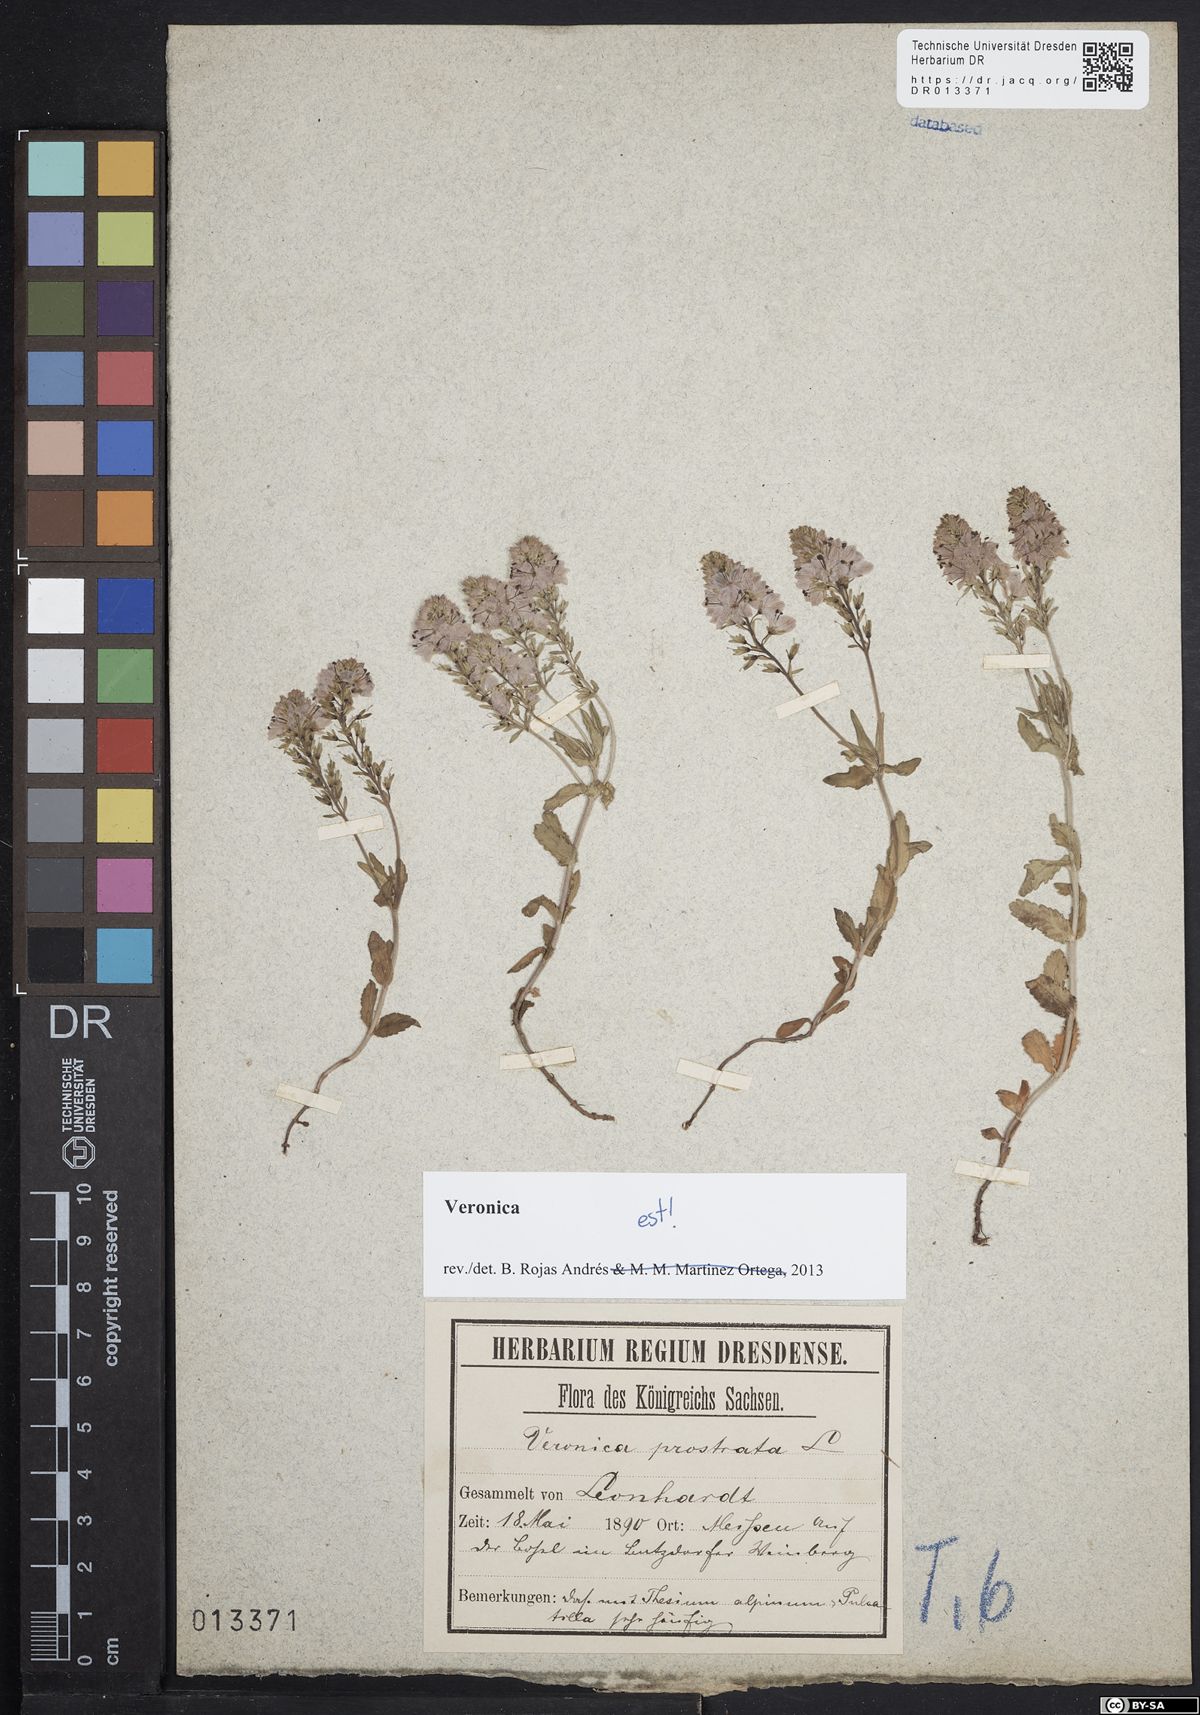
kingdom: Plantae
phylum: Tracheophyta
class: Magnoliopsida
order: Lamiales
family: Plantaginaceae
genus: Veronica
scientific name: Veronica prostrata
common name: Prostrate speedwell
